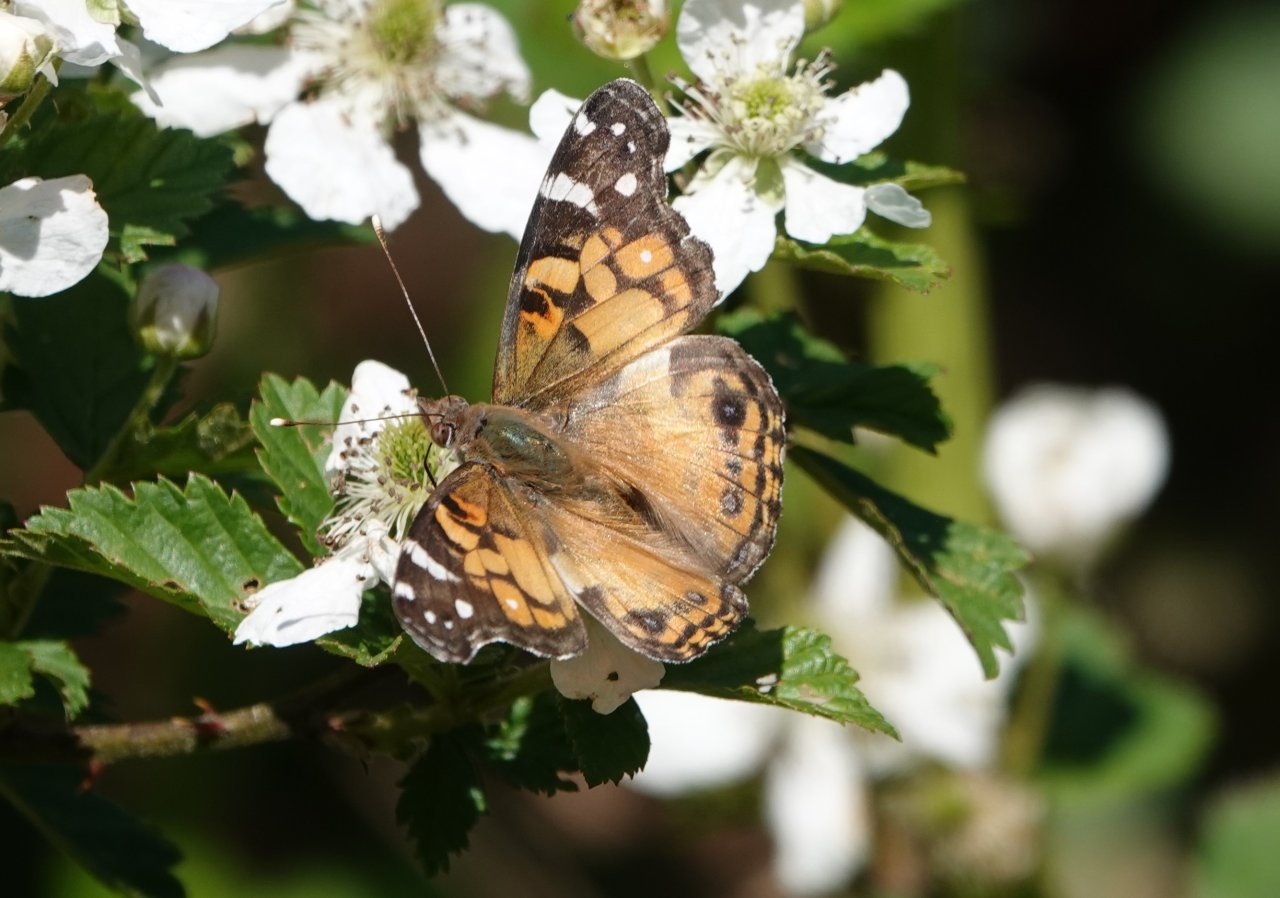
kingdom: Animalia
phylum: Arthropoda
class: Insecta
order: Lepidoptera
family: Nymphalidae
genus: Vanessa
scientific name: Vanessa virginiensis
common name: American Lady
